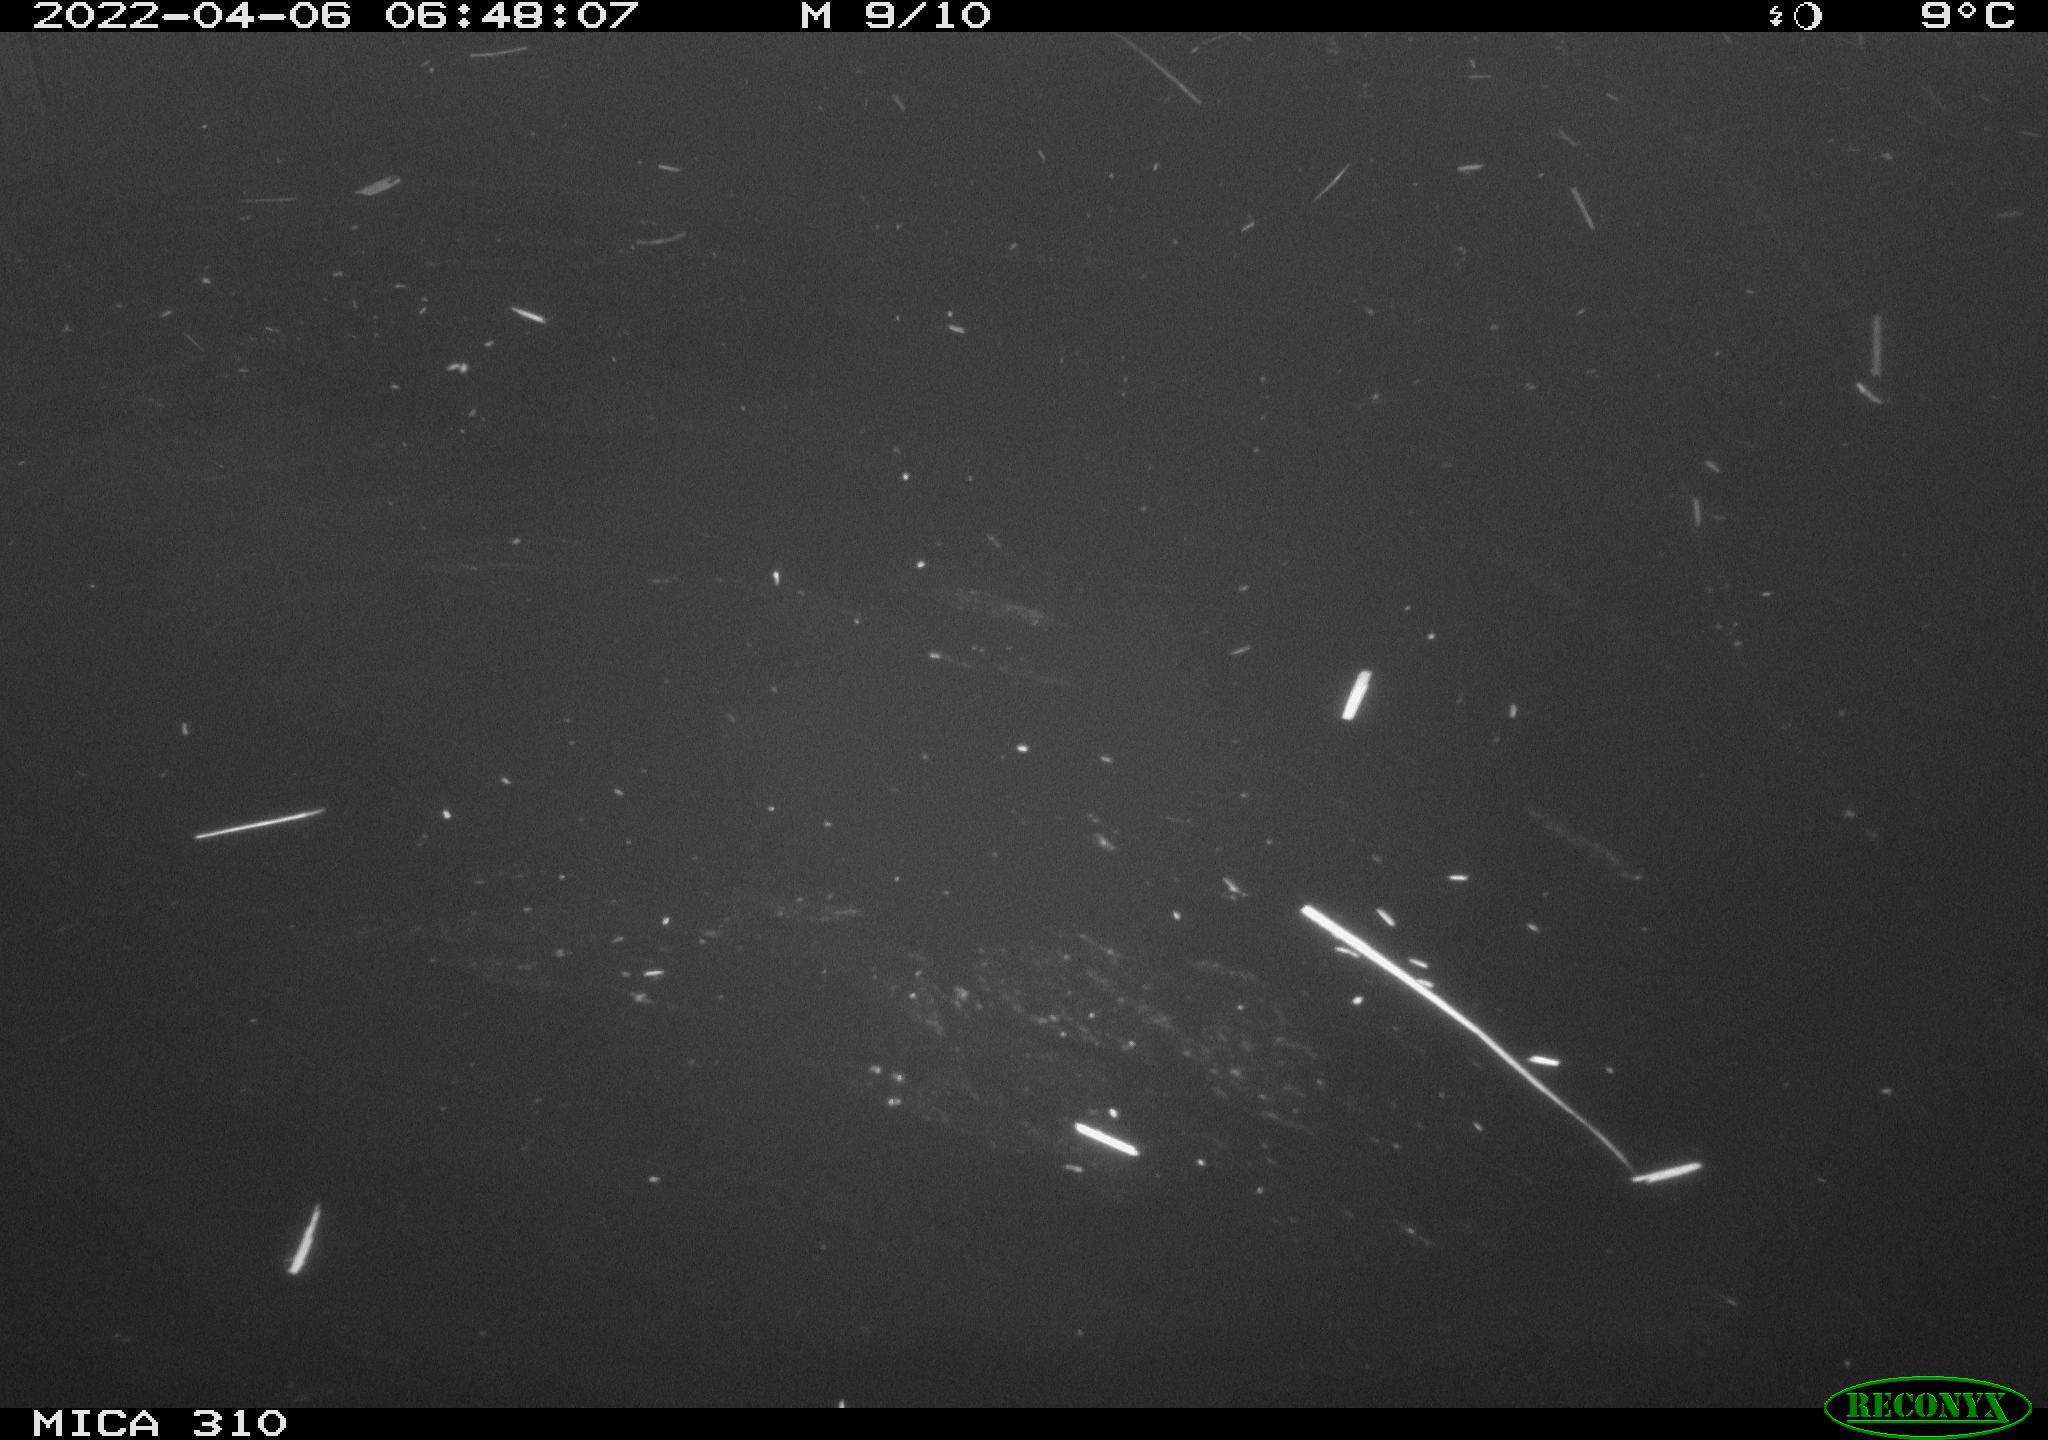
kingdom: Animalia
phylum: Chordata
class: Aves
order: Anseriformes
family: Anatidae
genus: Anas
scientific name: Anas platyrhynchos
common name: Mallard
